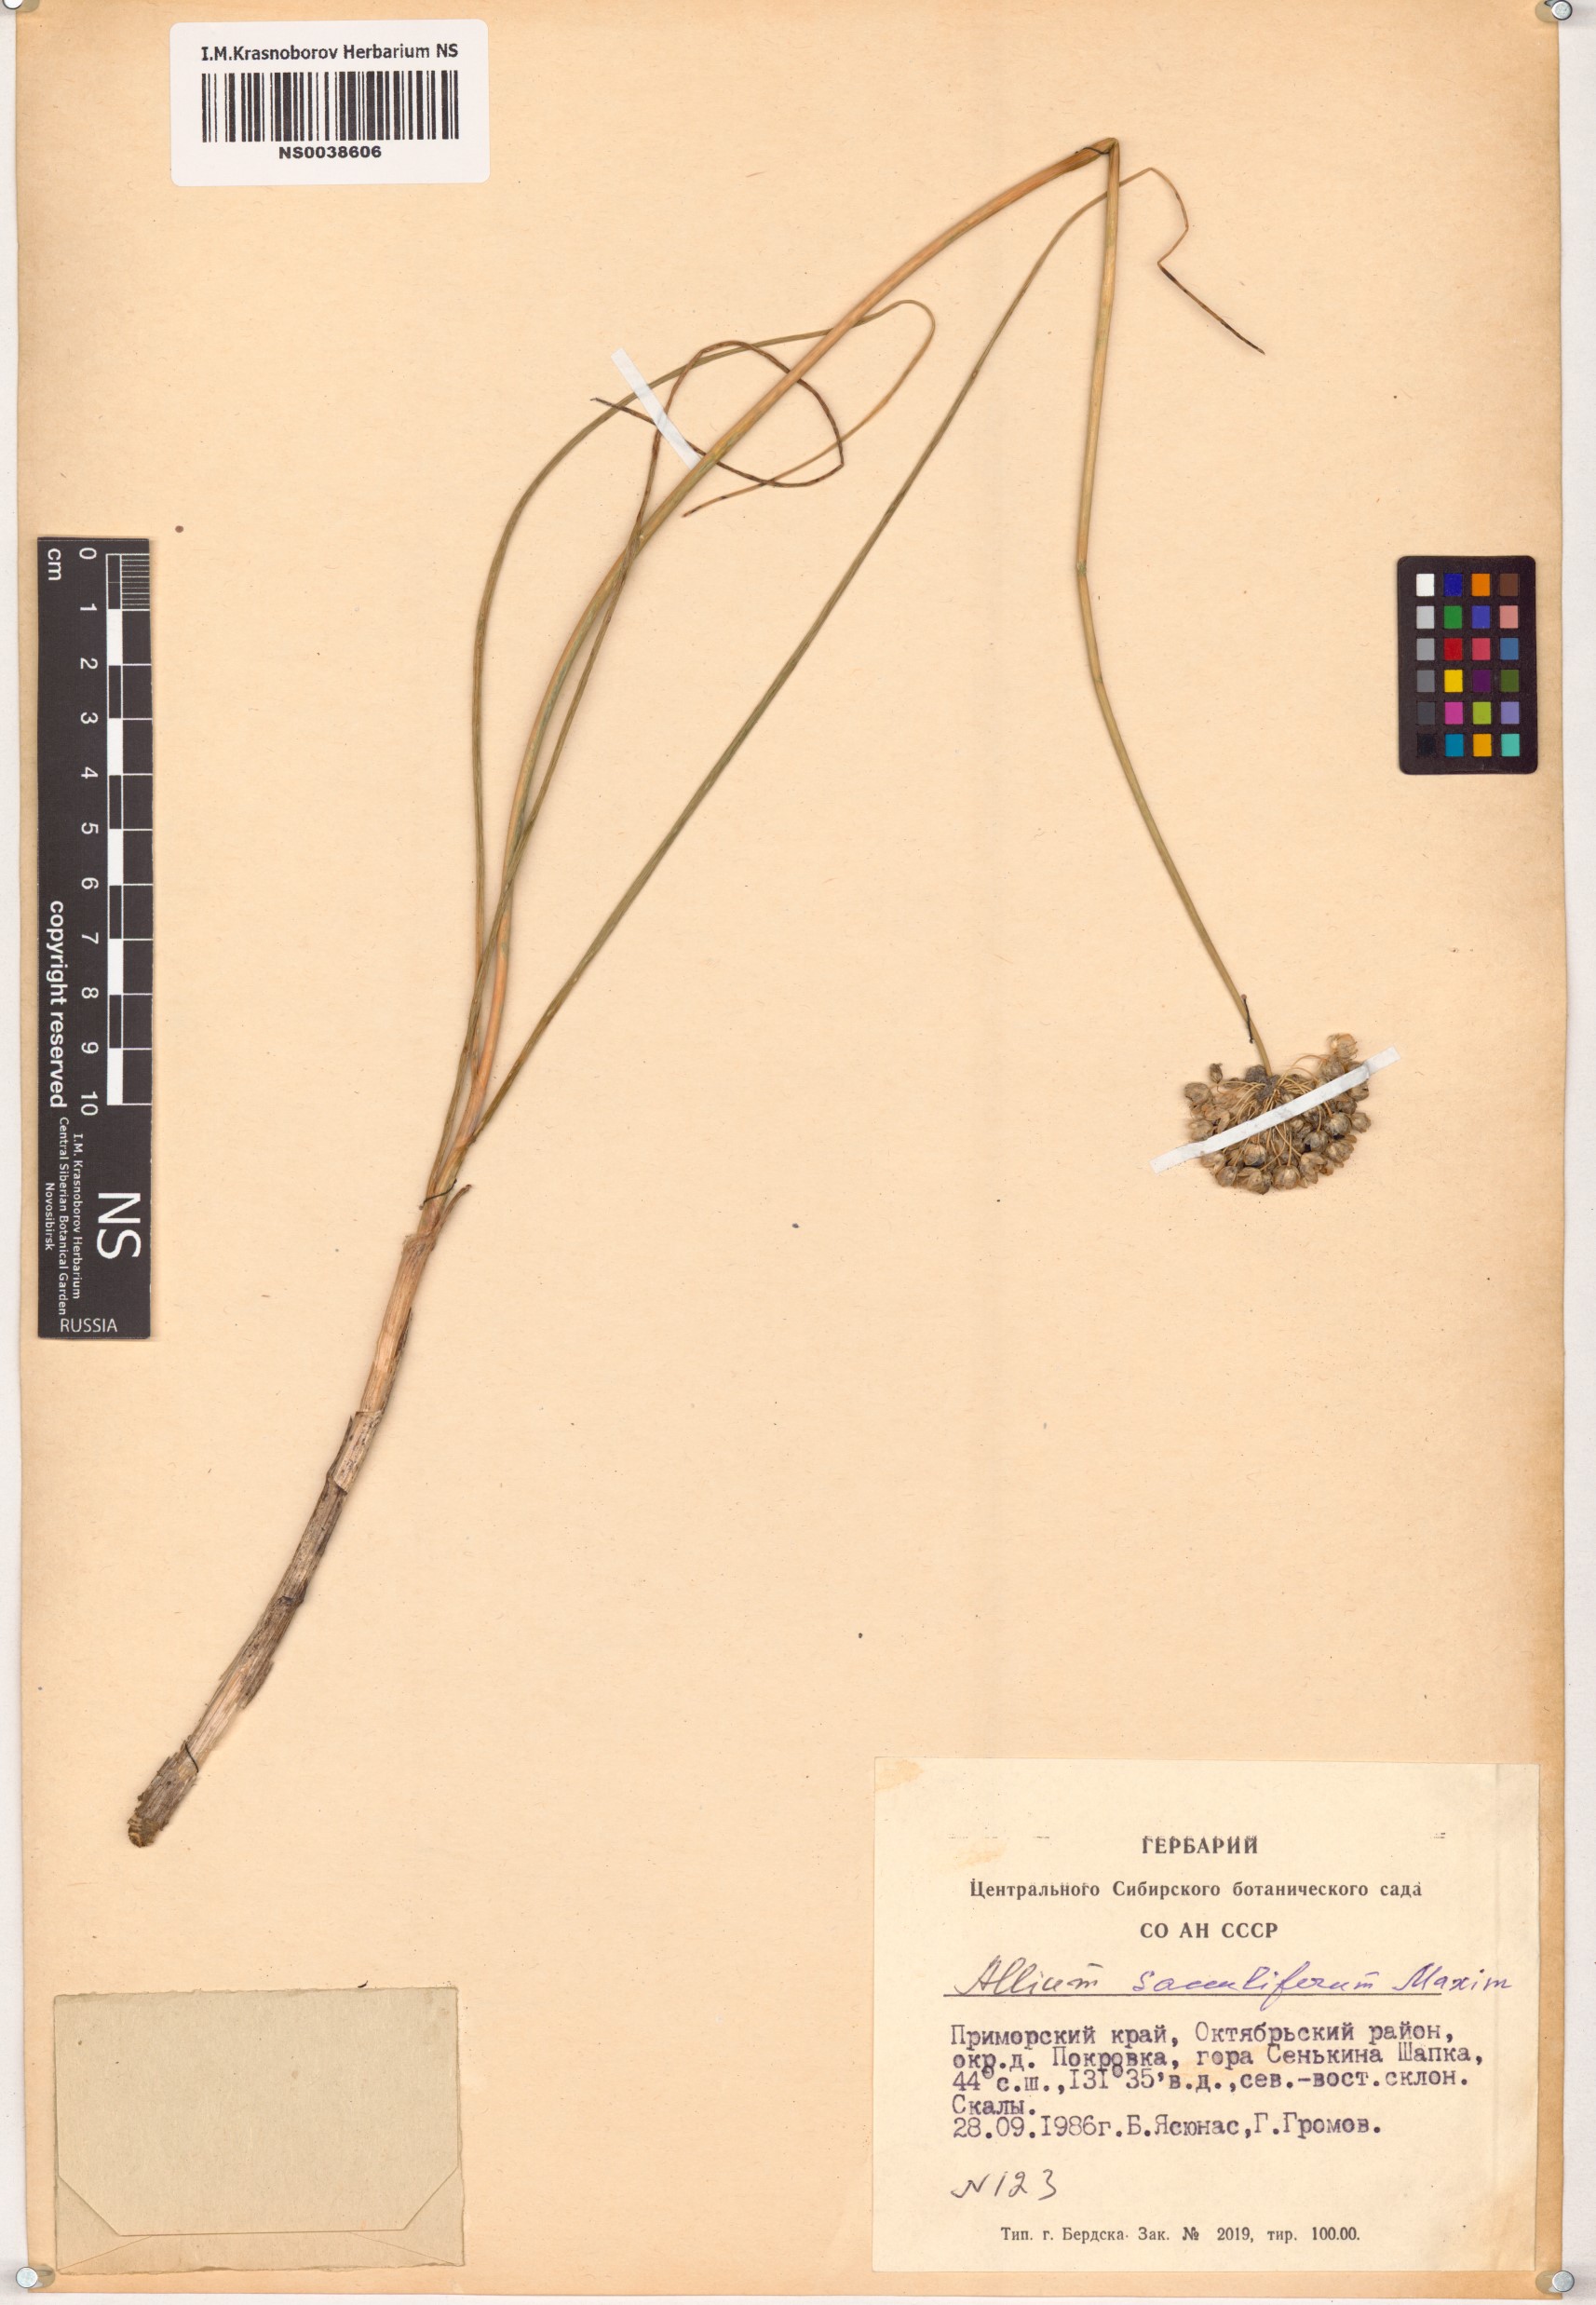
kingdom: Plantae
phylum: Tracheophyta
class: Liliopsida
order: Asparagales
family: Amaryllidaceae
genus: Allium
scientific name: Allium sacculiferum
